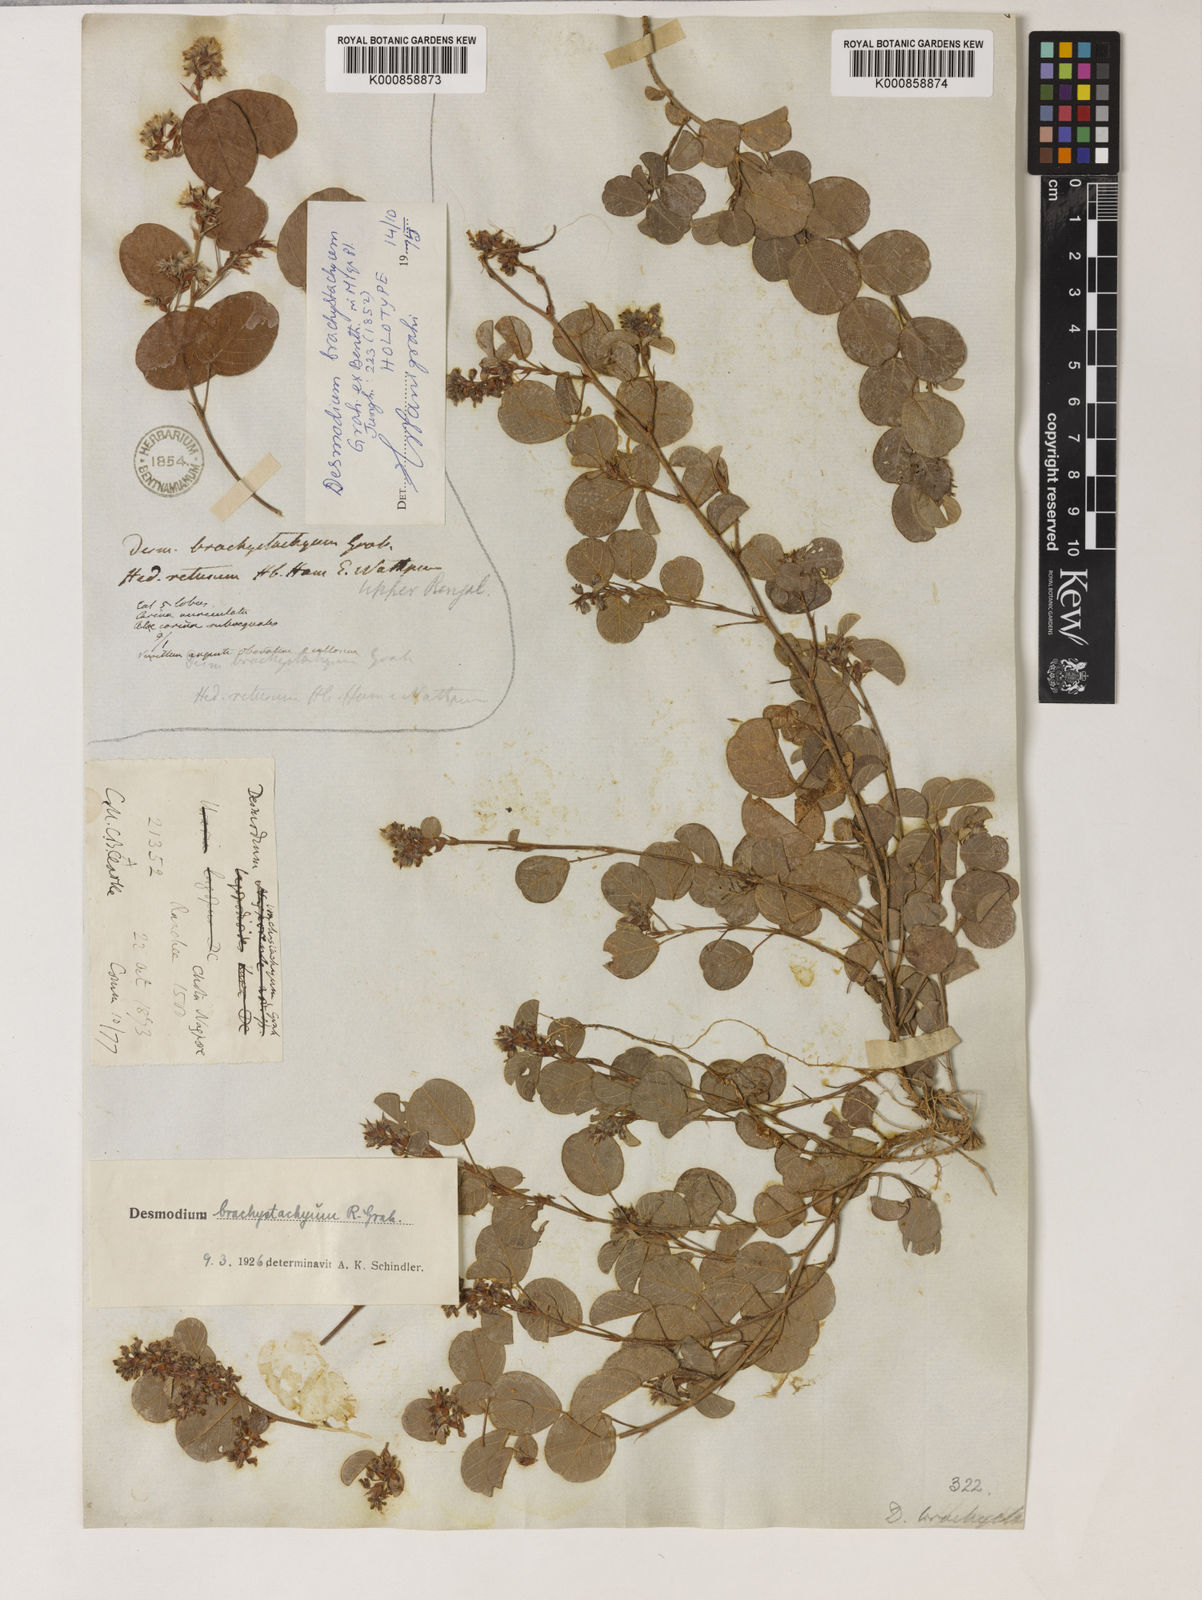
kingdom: Plantae
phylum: Tracheophyta
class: Magnoliopsida
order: Fabales
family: Fabaceae
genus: Desmodium
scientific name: Desmodium
